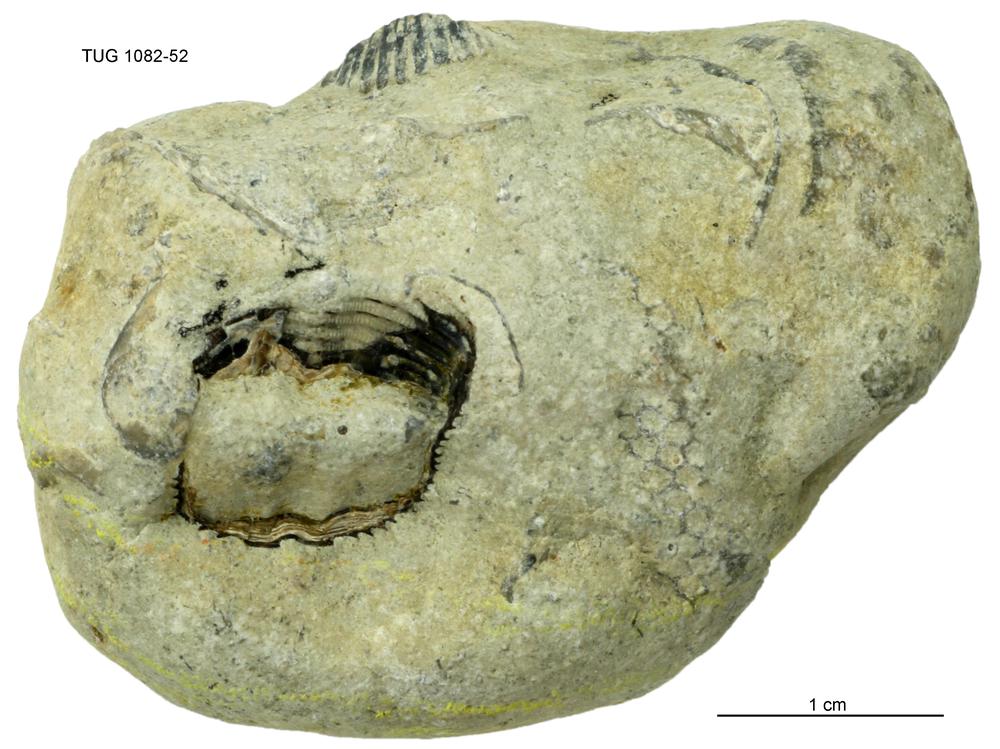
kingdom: Animalia
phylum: Cnidaria
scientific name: Cnidaria
